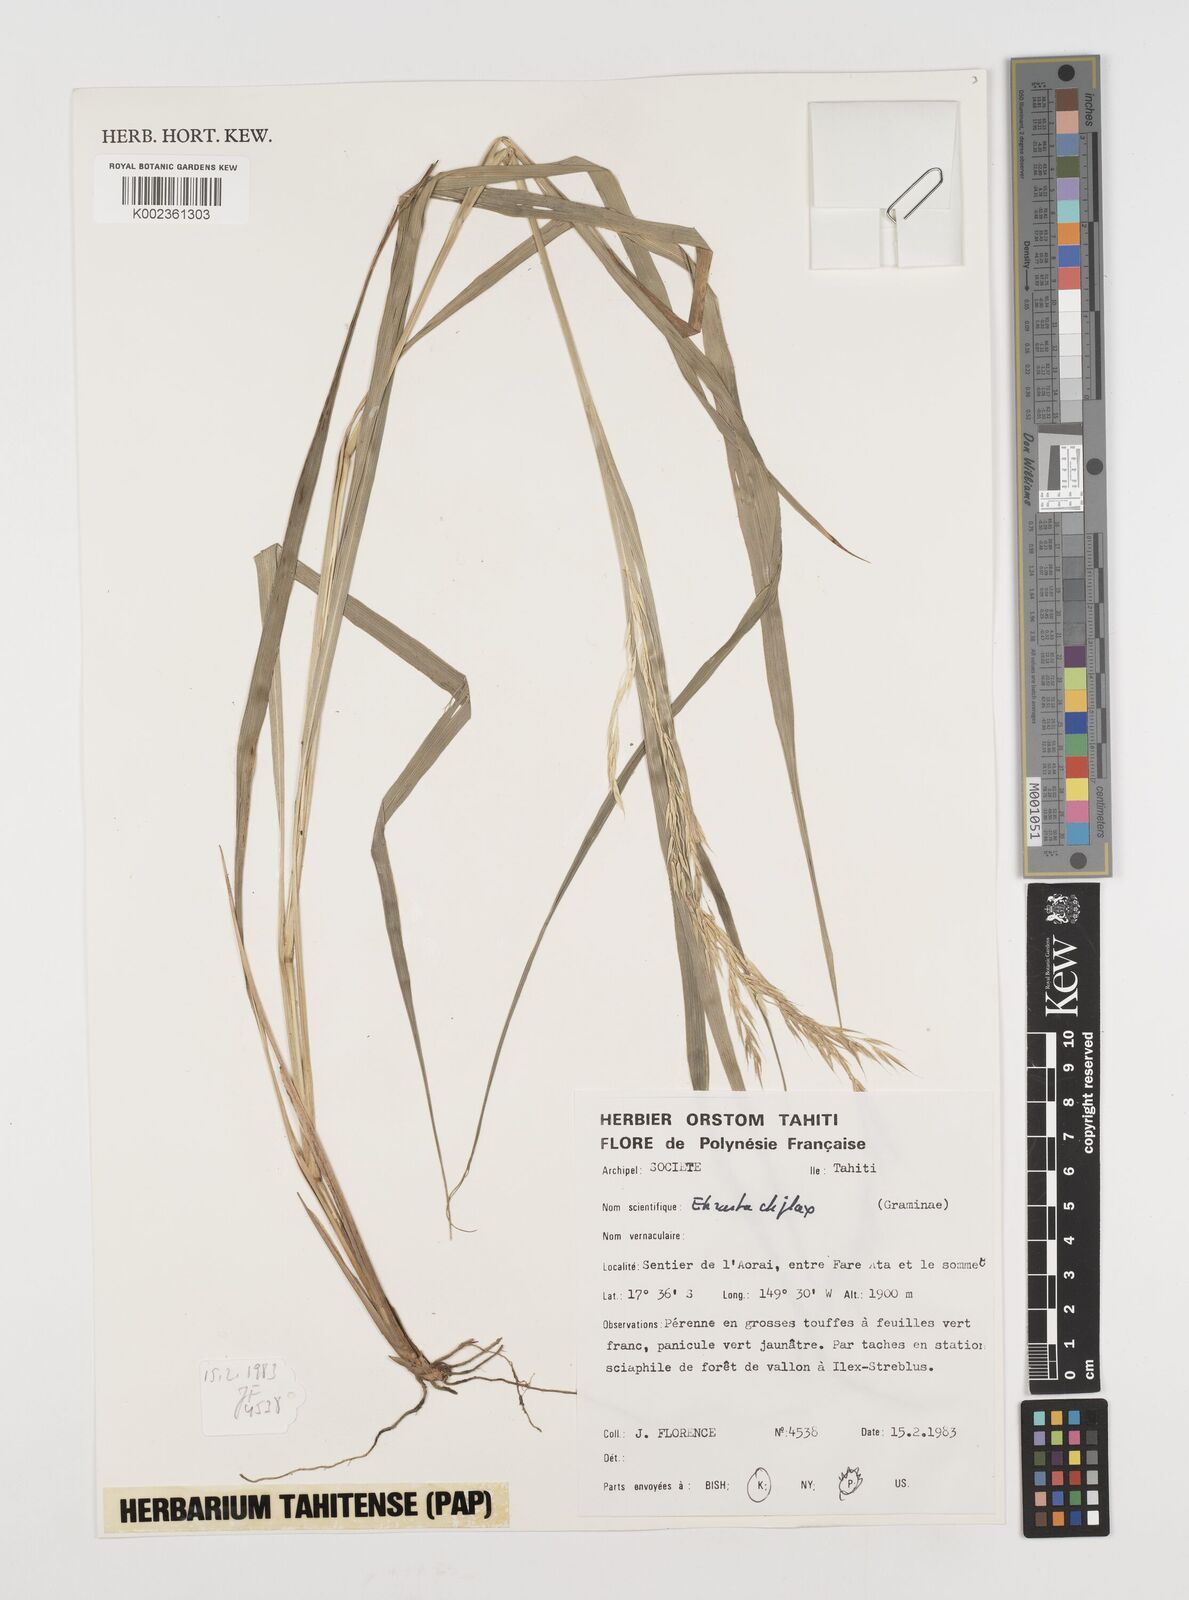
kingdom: Plantae
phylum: Tracheophyta
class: Liliopsida
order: Poales
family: Poaceae
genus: Ehrharta
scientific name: Ehrharta diplax
